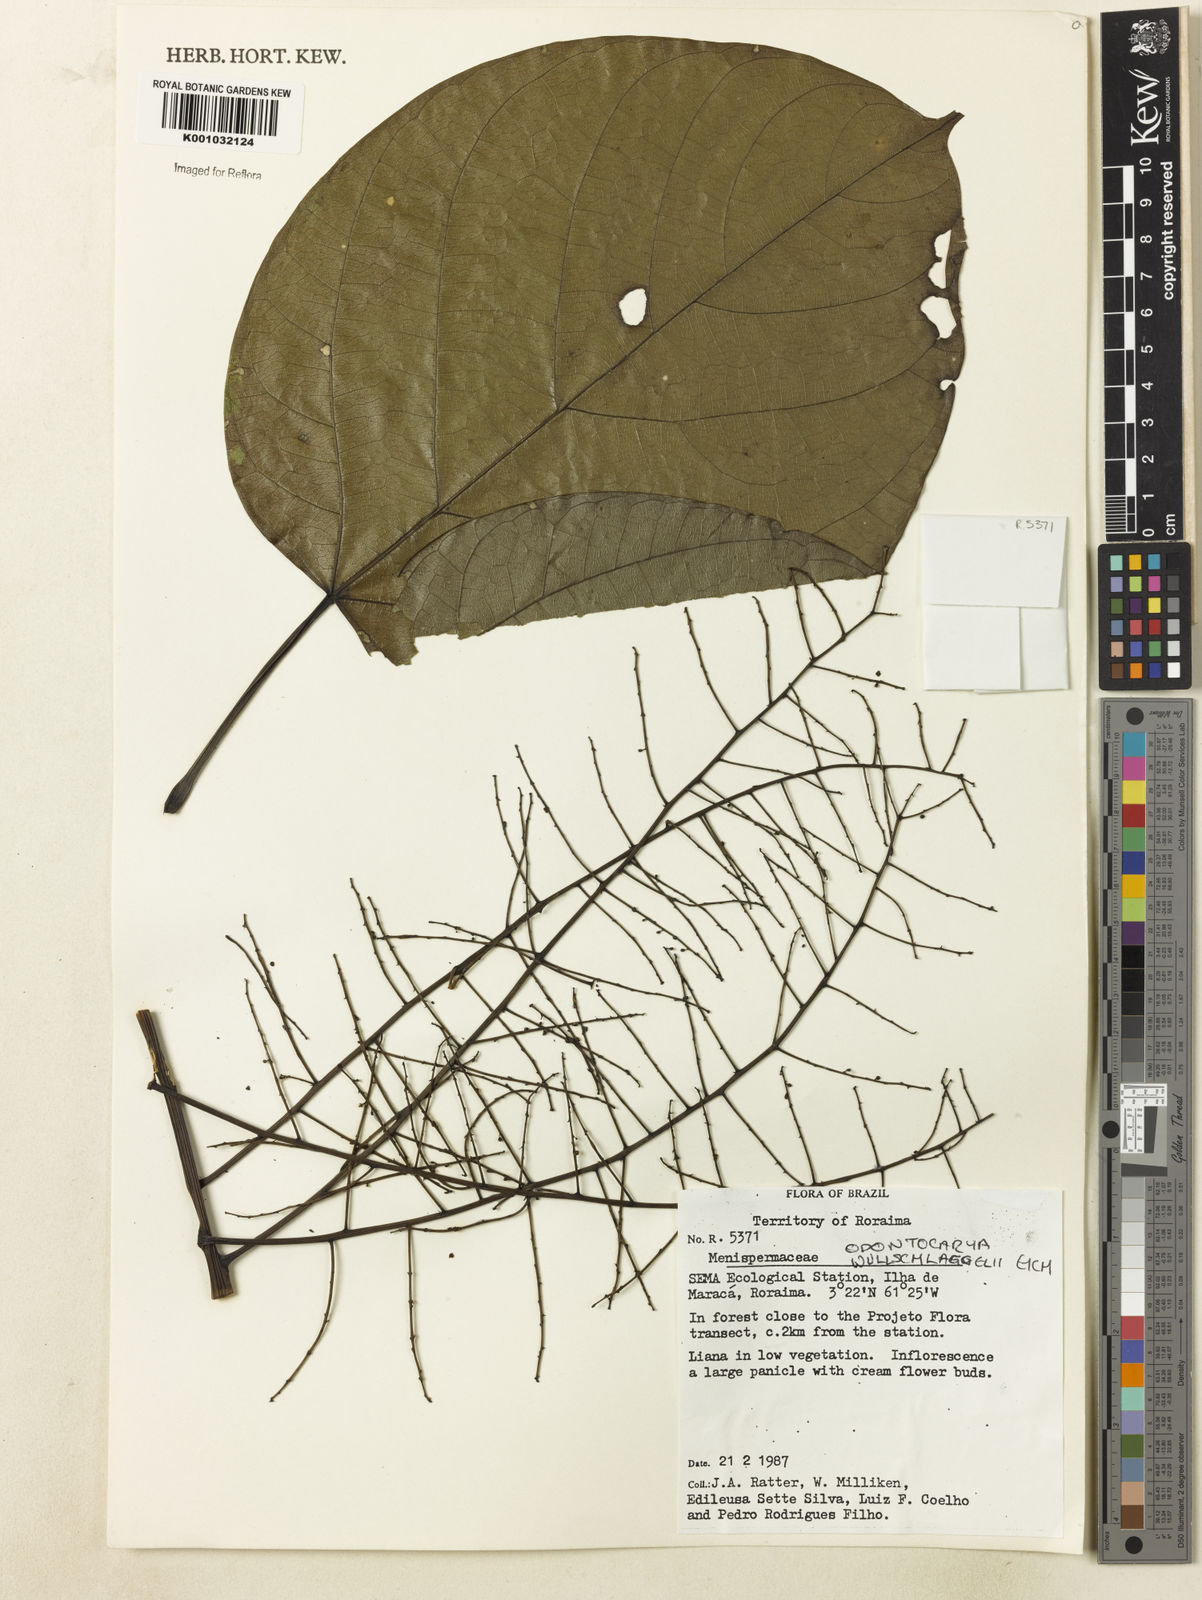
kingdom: Plantae
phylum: Tracheophyta
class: Magnoliopsida
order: Ranunculales
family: Menispermaceae
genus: Odontocarya
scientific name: Odontocarya wullschlaegelii
